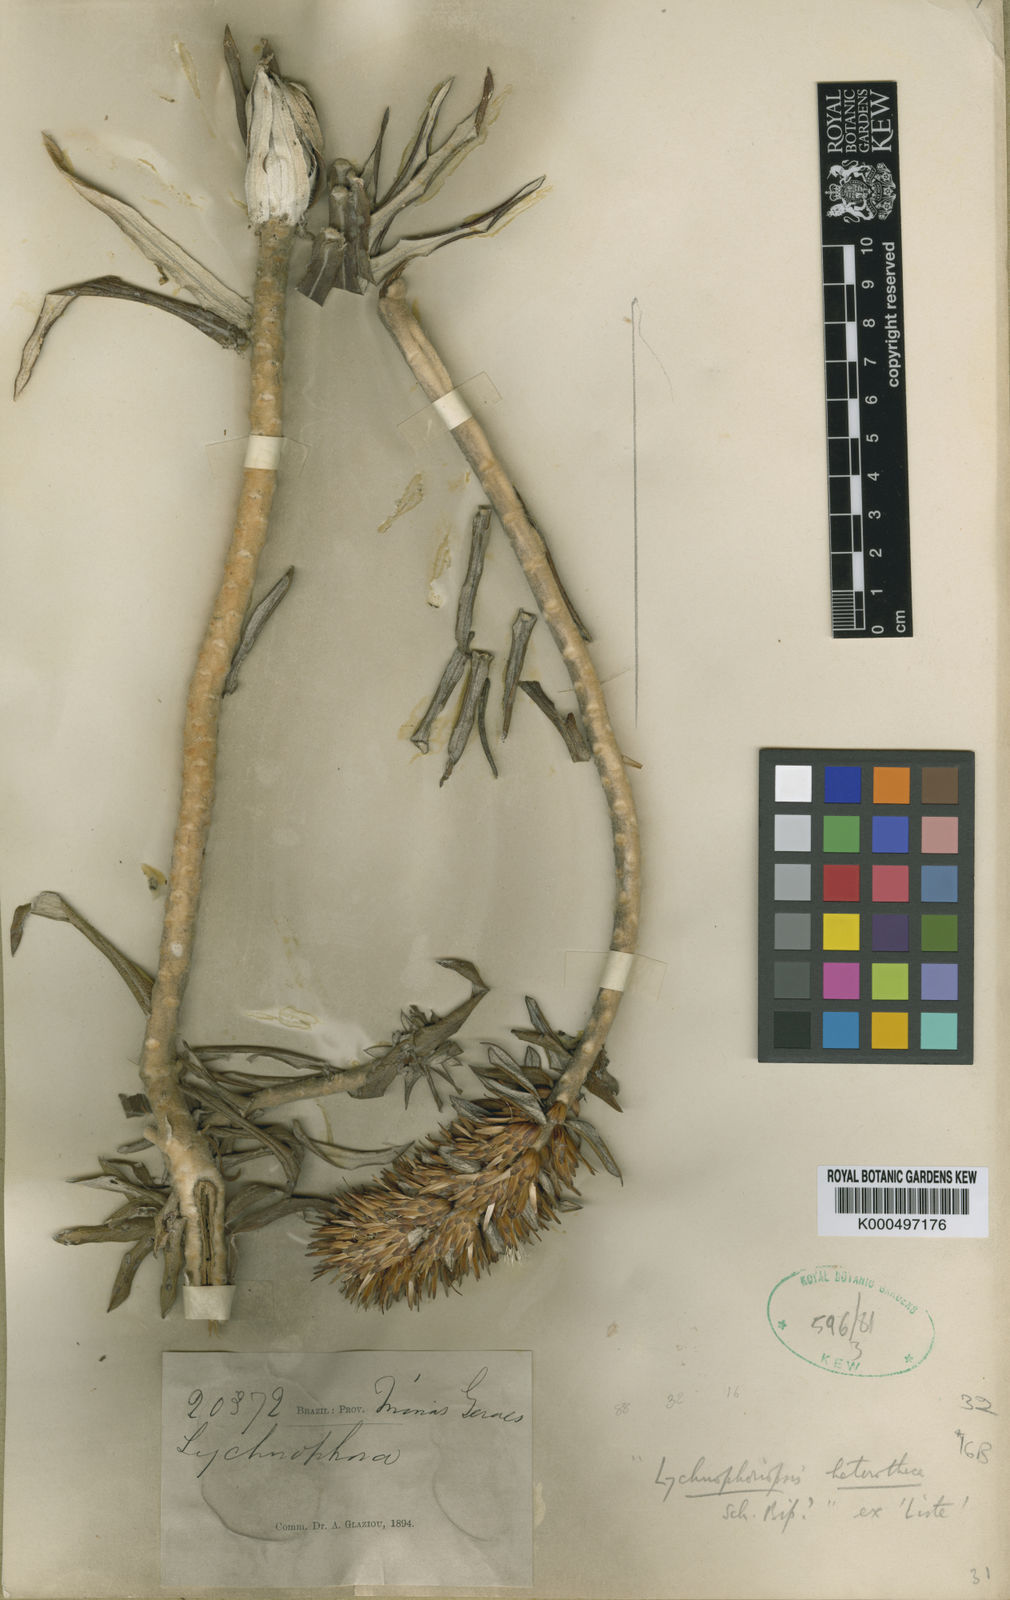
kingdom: Plantae
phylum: Tracheophyta
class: Magnoliopsida
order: Asterales
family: Asteraceae
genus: Lychnophora
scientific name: Lychnophora hatschbachii
